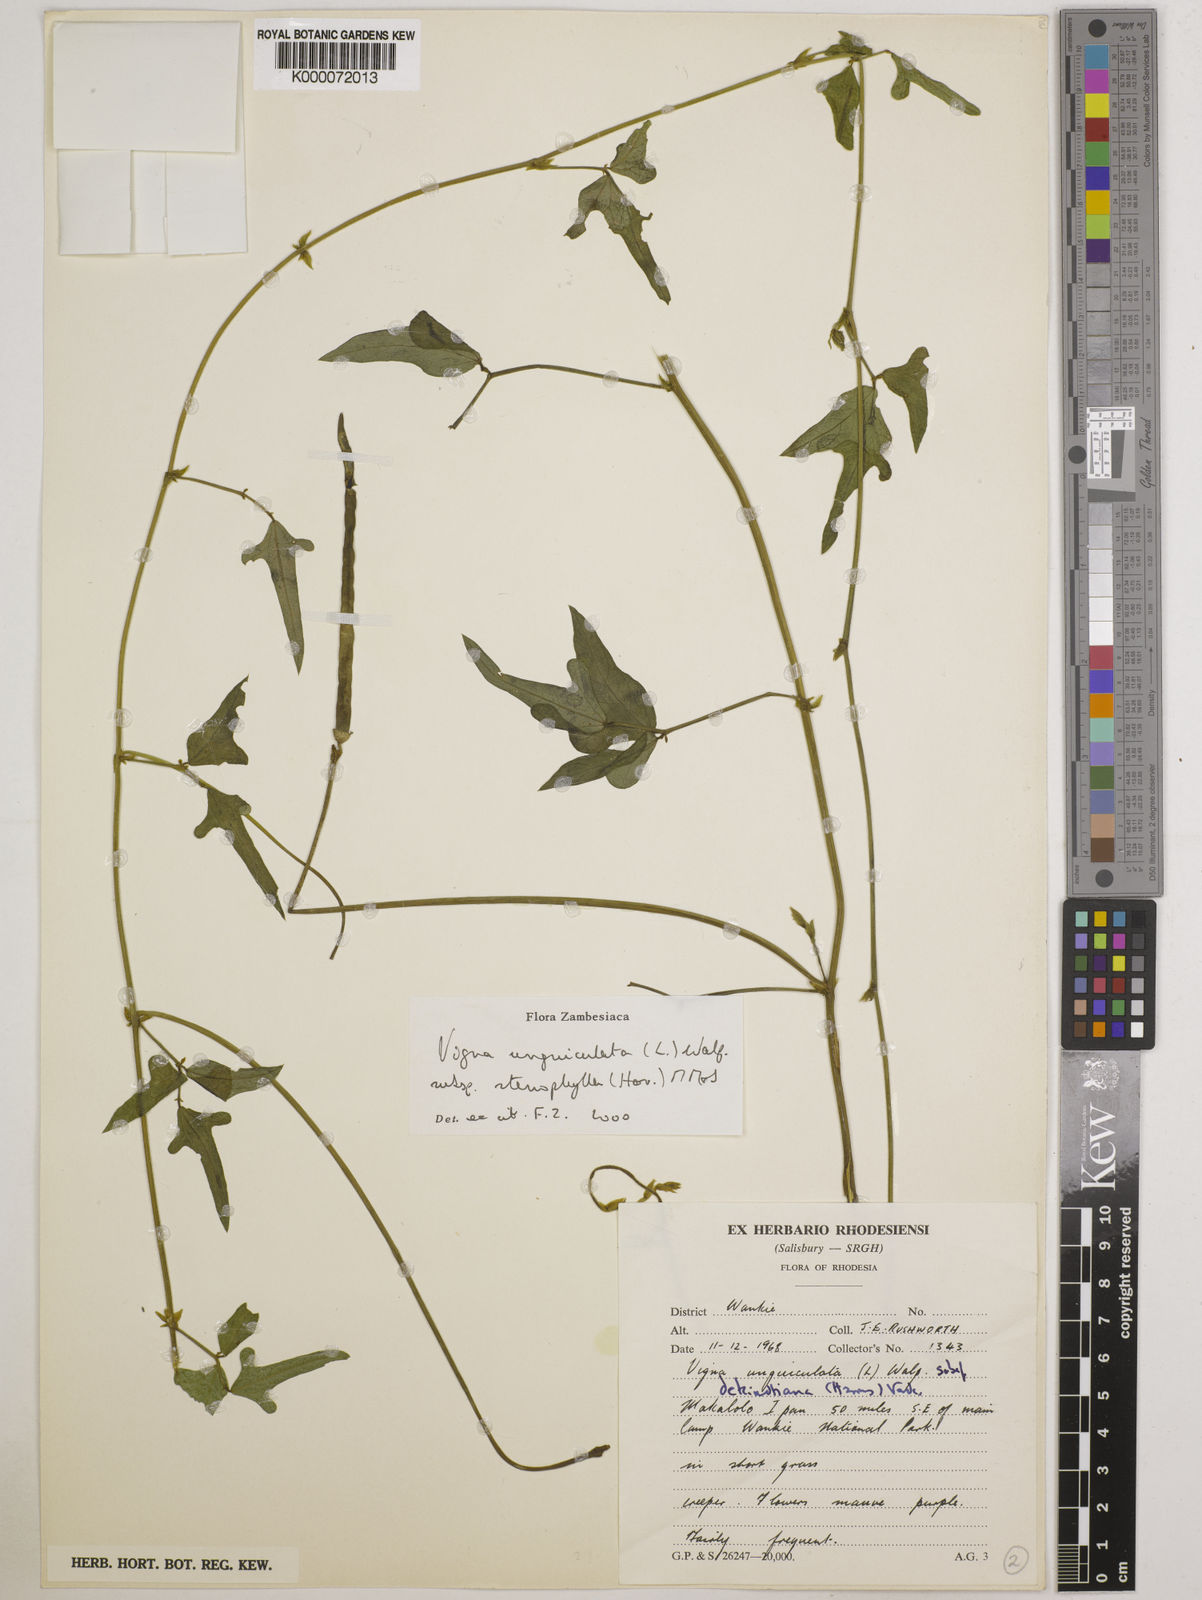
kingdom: Plantae
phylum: Tracheophyta
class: Magnoliopsida
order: Fabales
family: Fabaceae
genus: Vigna
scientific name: Vigna unguiculata
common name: Cowpea
